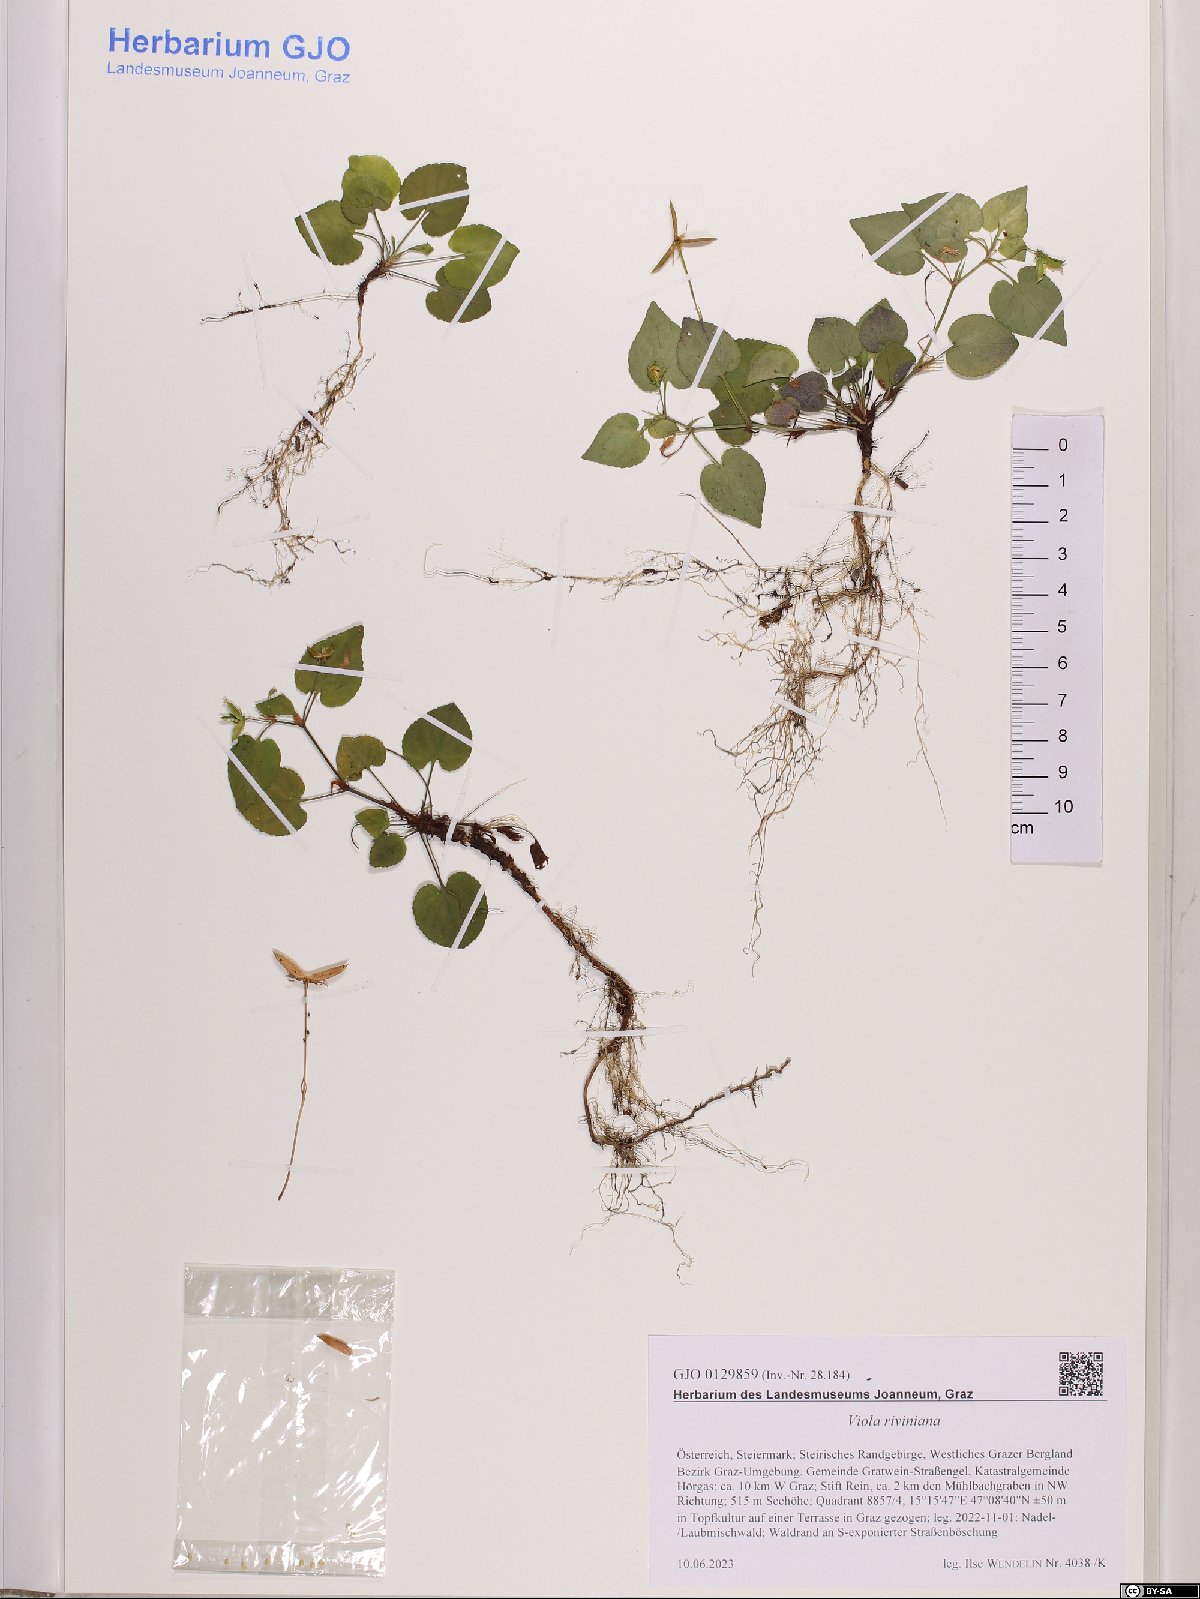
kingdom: Plantae
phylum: Tracheophyta
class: Magnoliopsida
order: Malpighiales
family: Violaceae
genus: Viola
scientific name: Viola riviniana
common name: Common dog-violet
